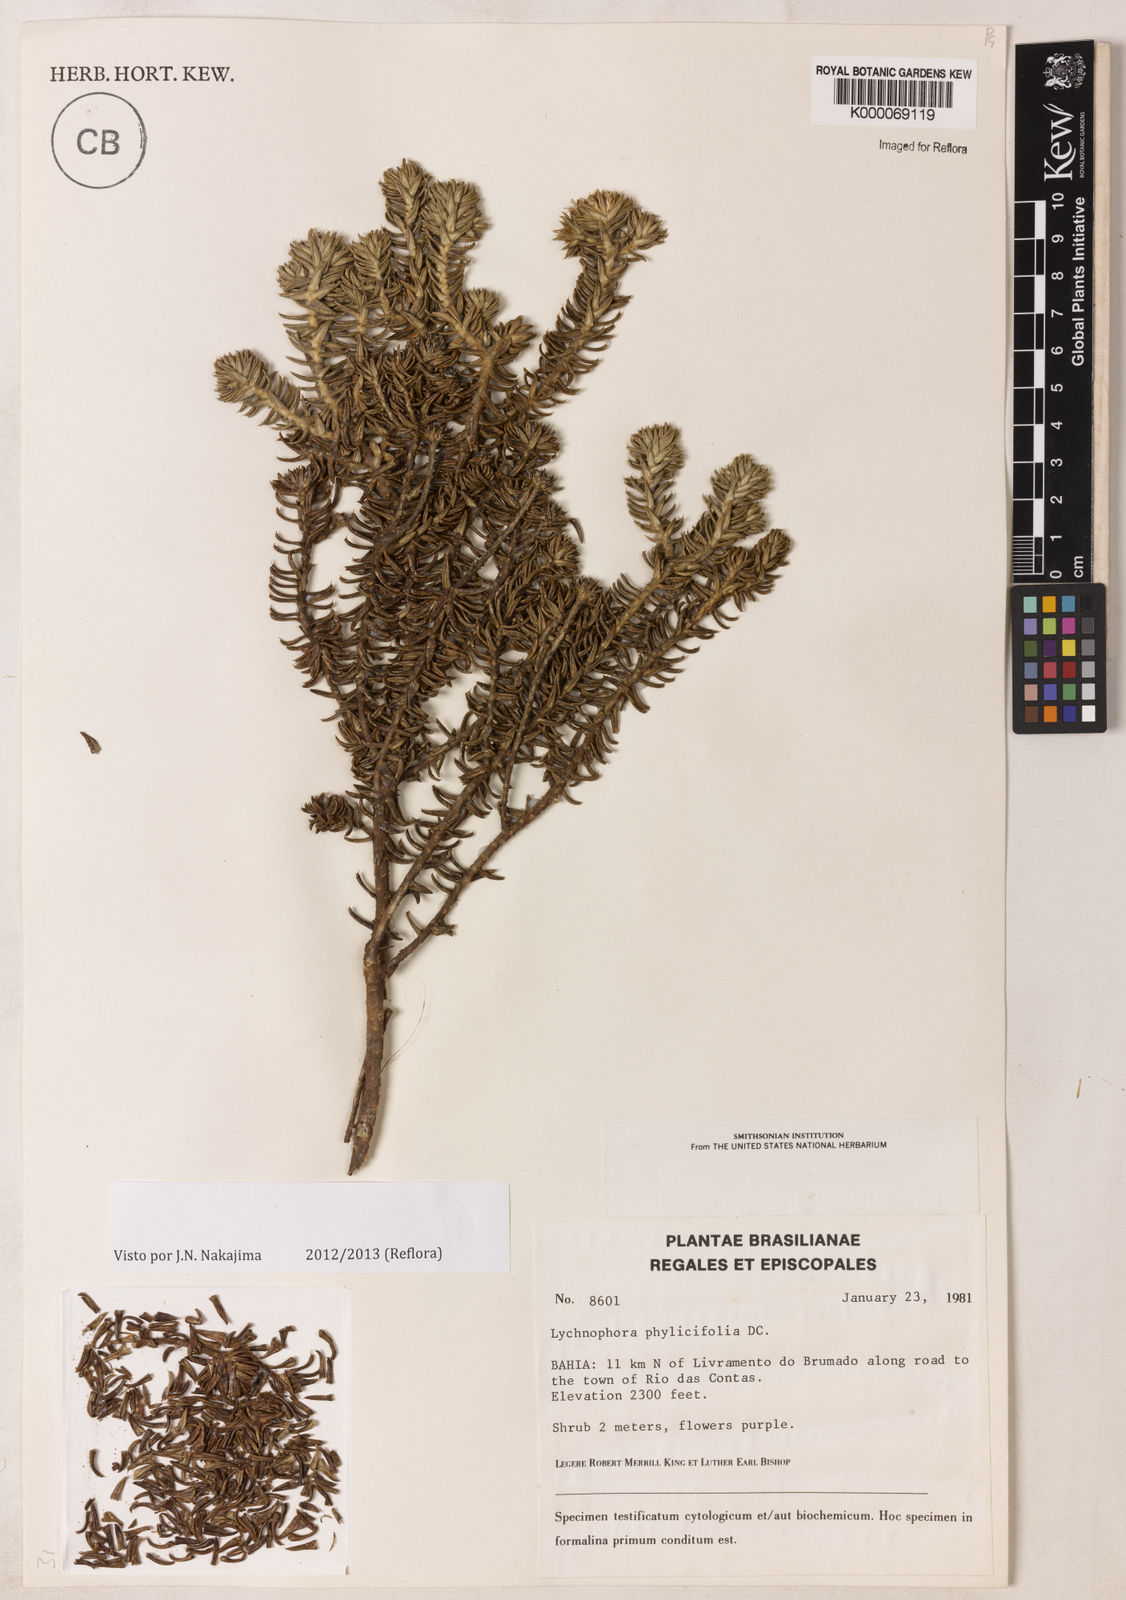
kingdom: Plantae
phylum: Tracheophyta
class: Magnoliopsida
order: Asterales
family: Asteraceae
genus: Lychnophora
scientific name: Lychnophora phylicifolia
